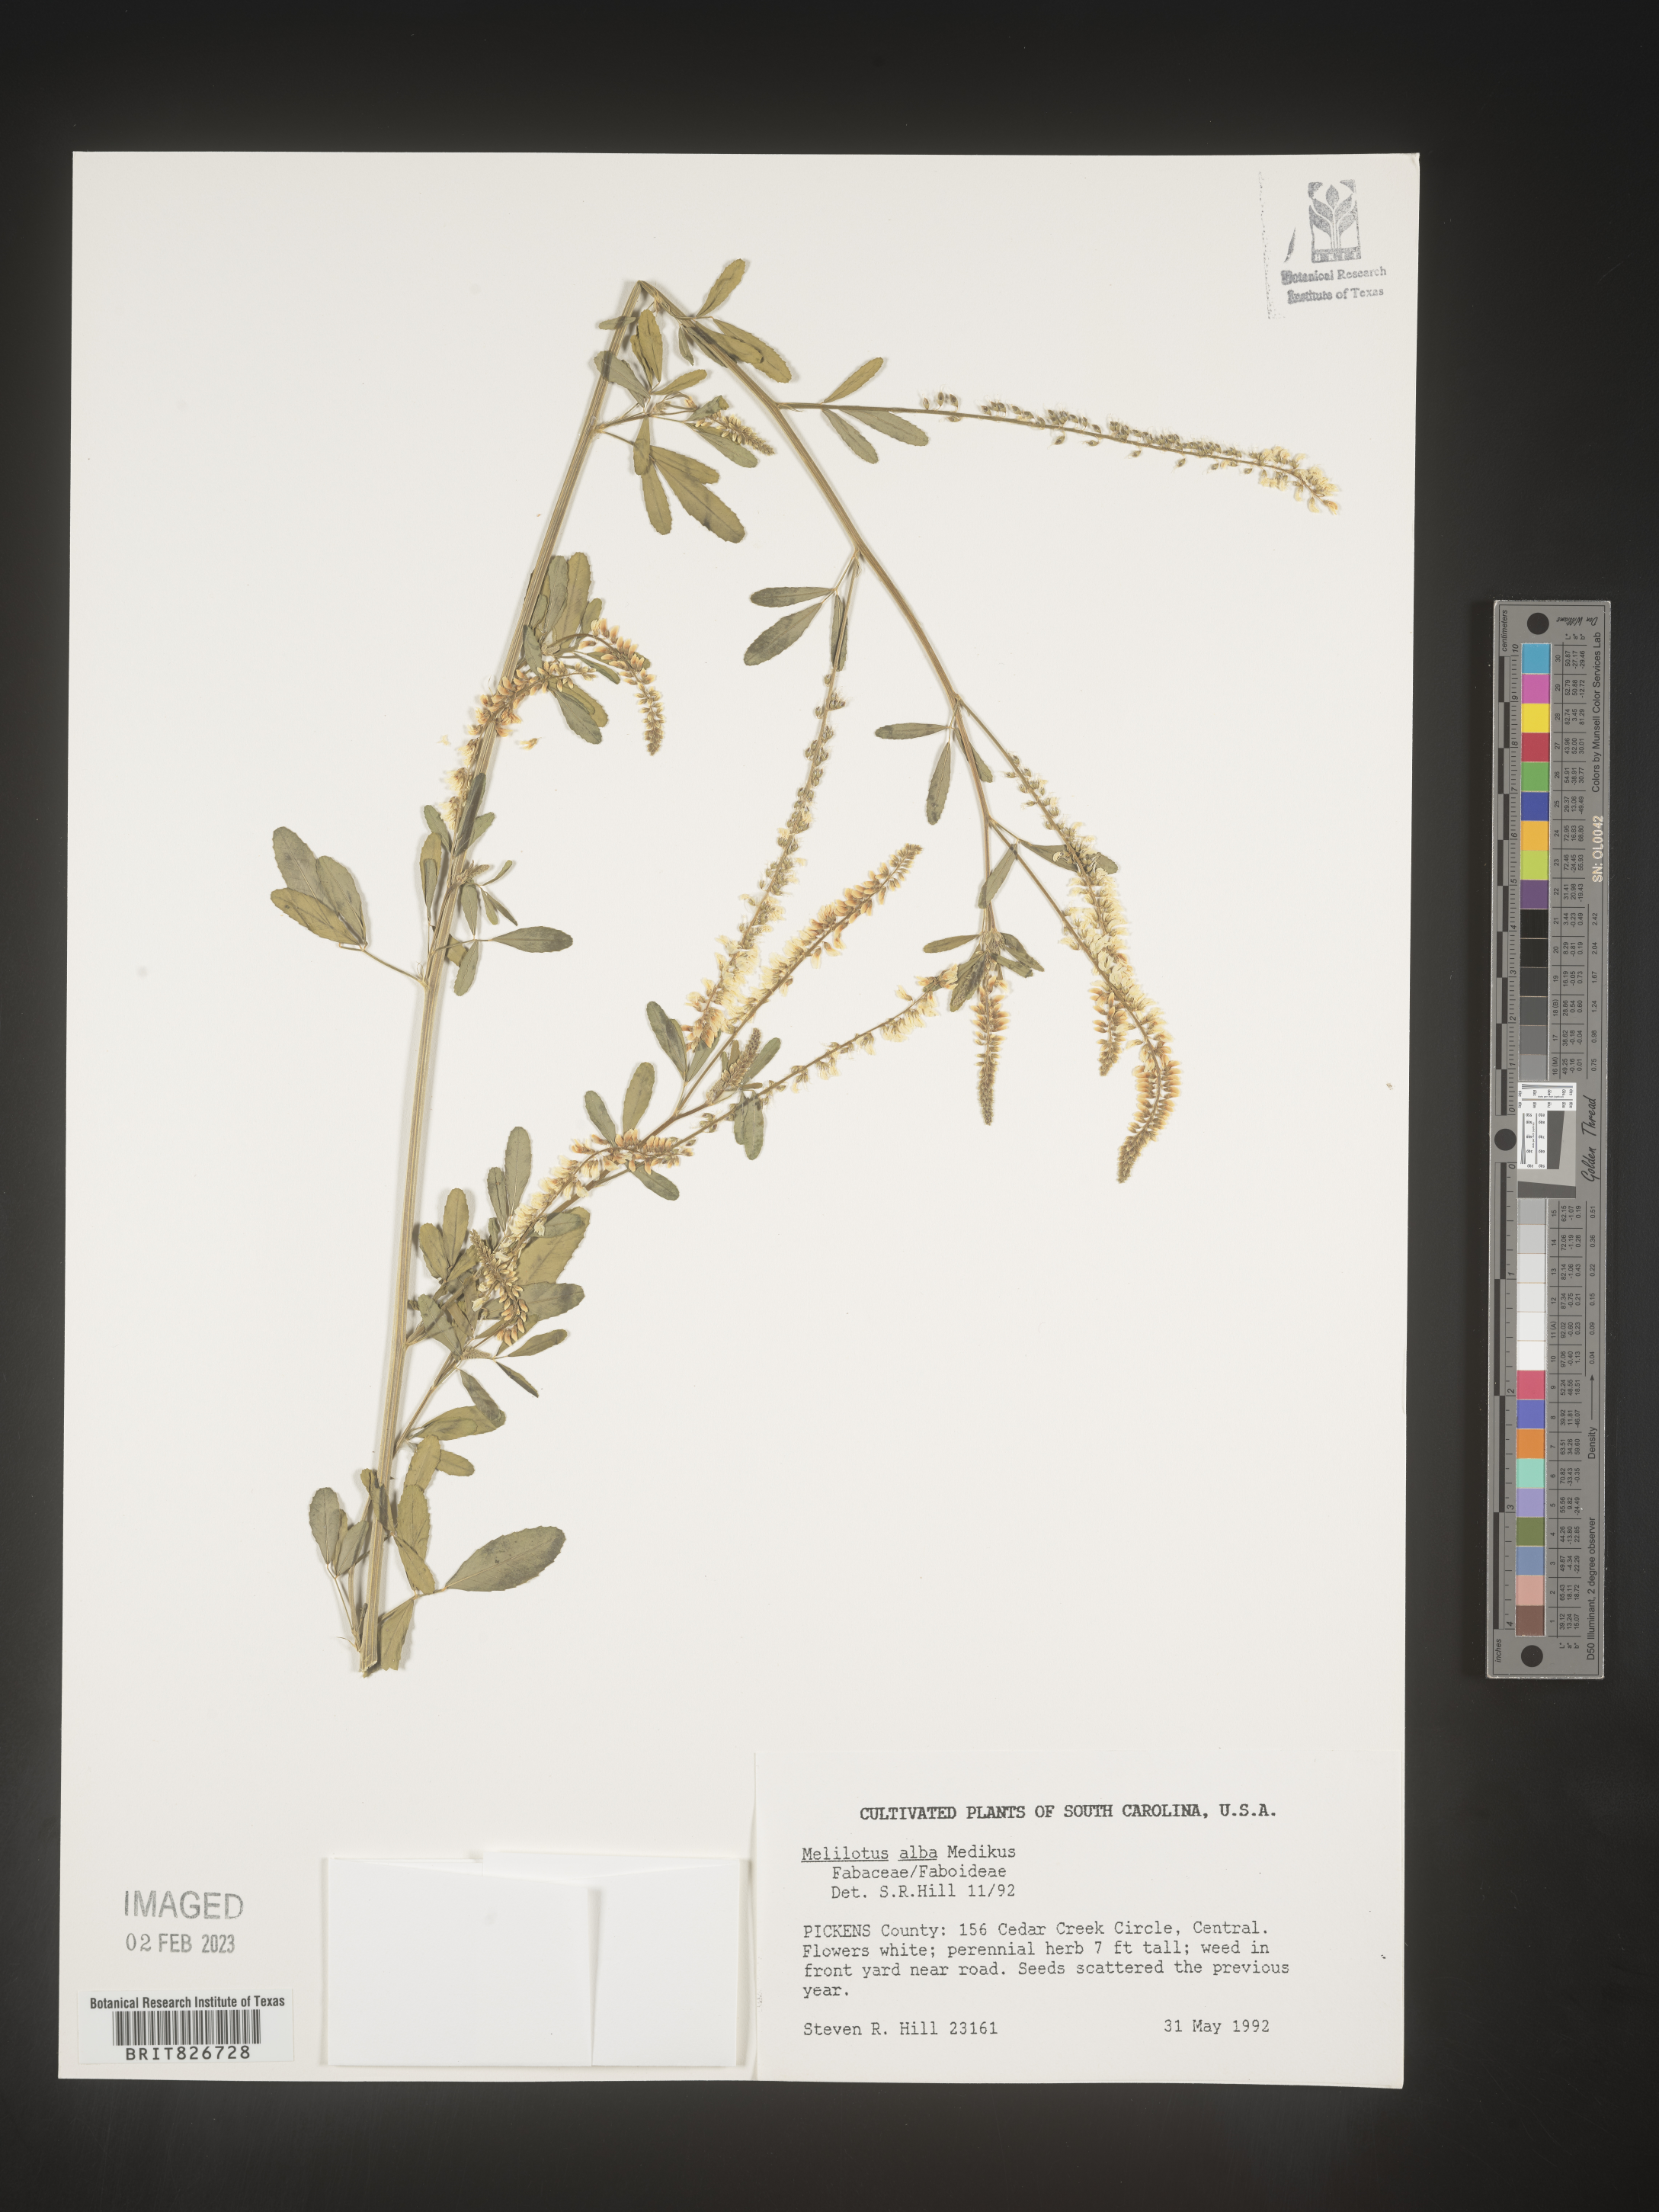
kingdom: Plantae
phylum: Tracheophyta
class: Magnoliopsida
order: Fabales
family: Fabaceae
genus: Melilotus
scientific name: Melilotus albus
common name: White melilot
